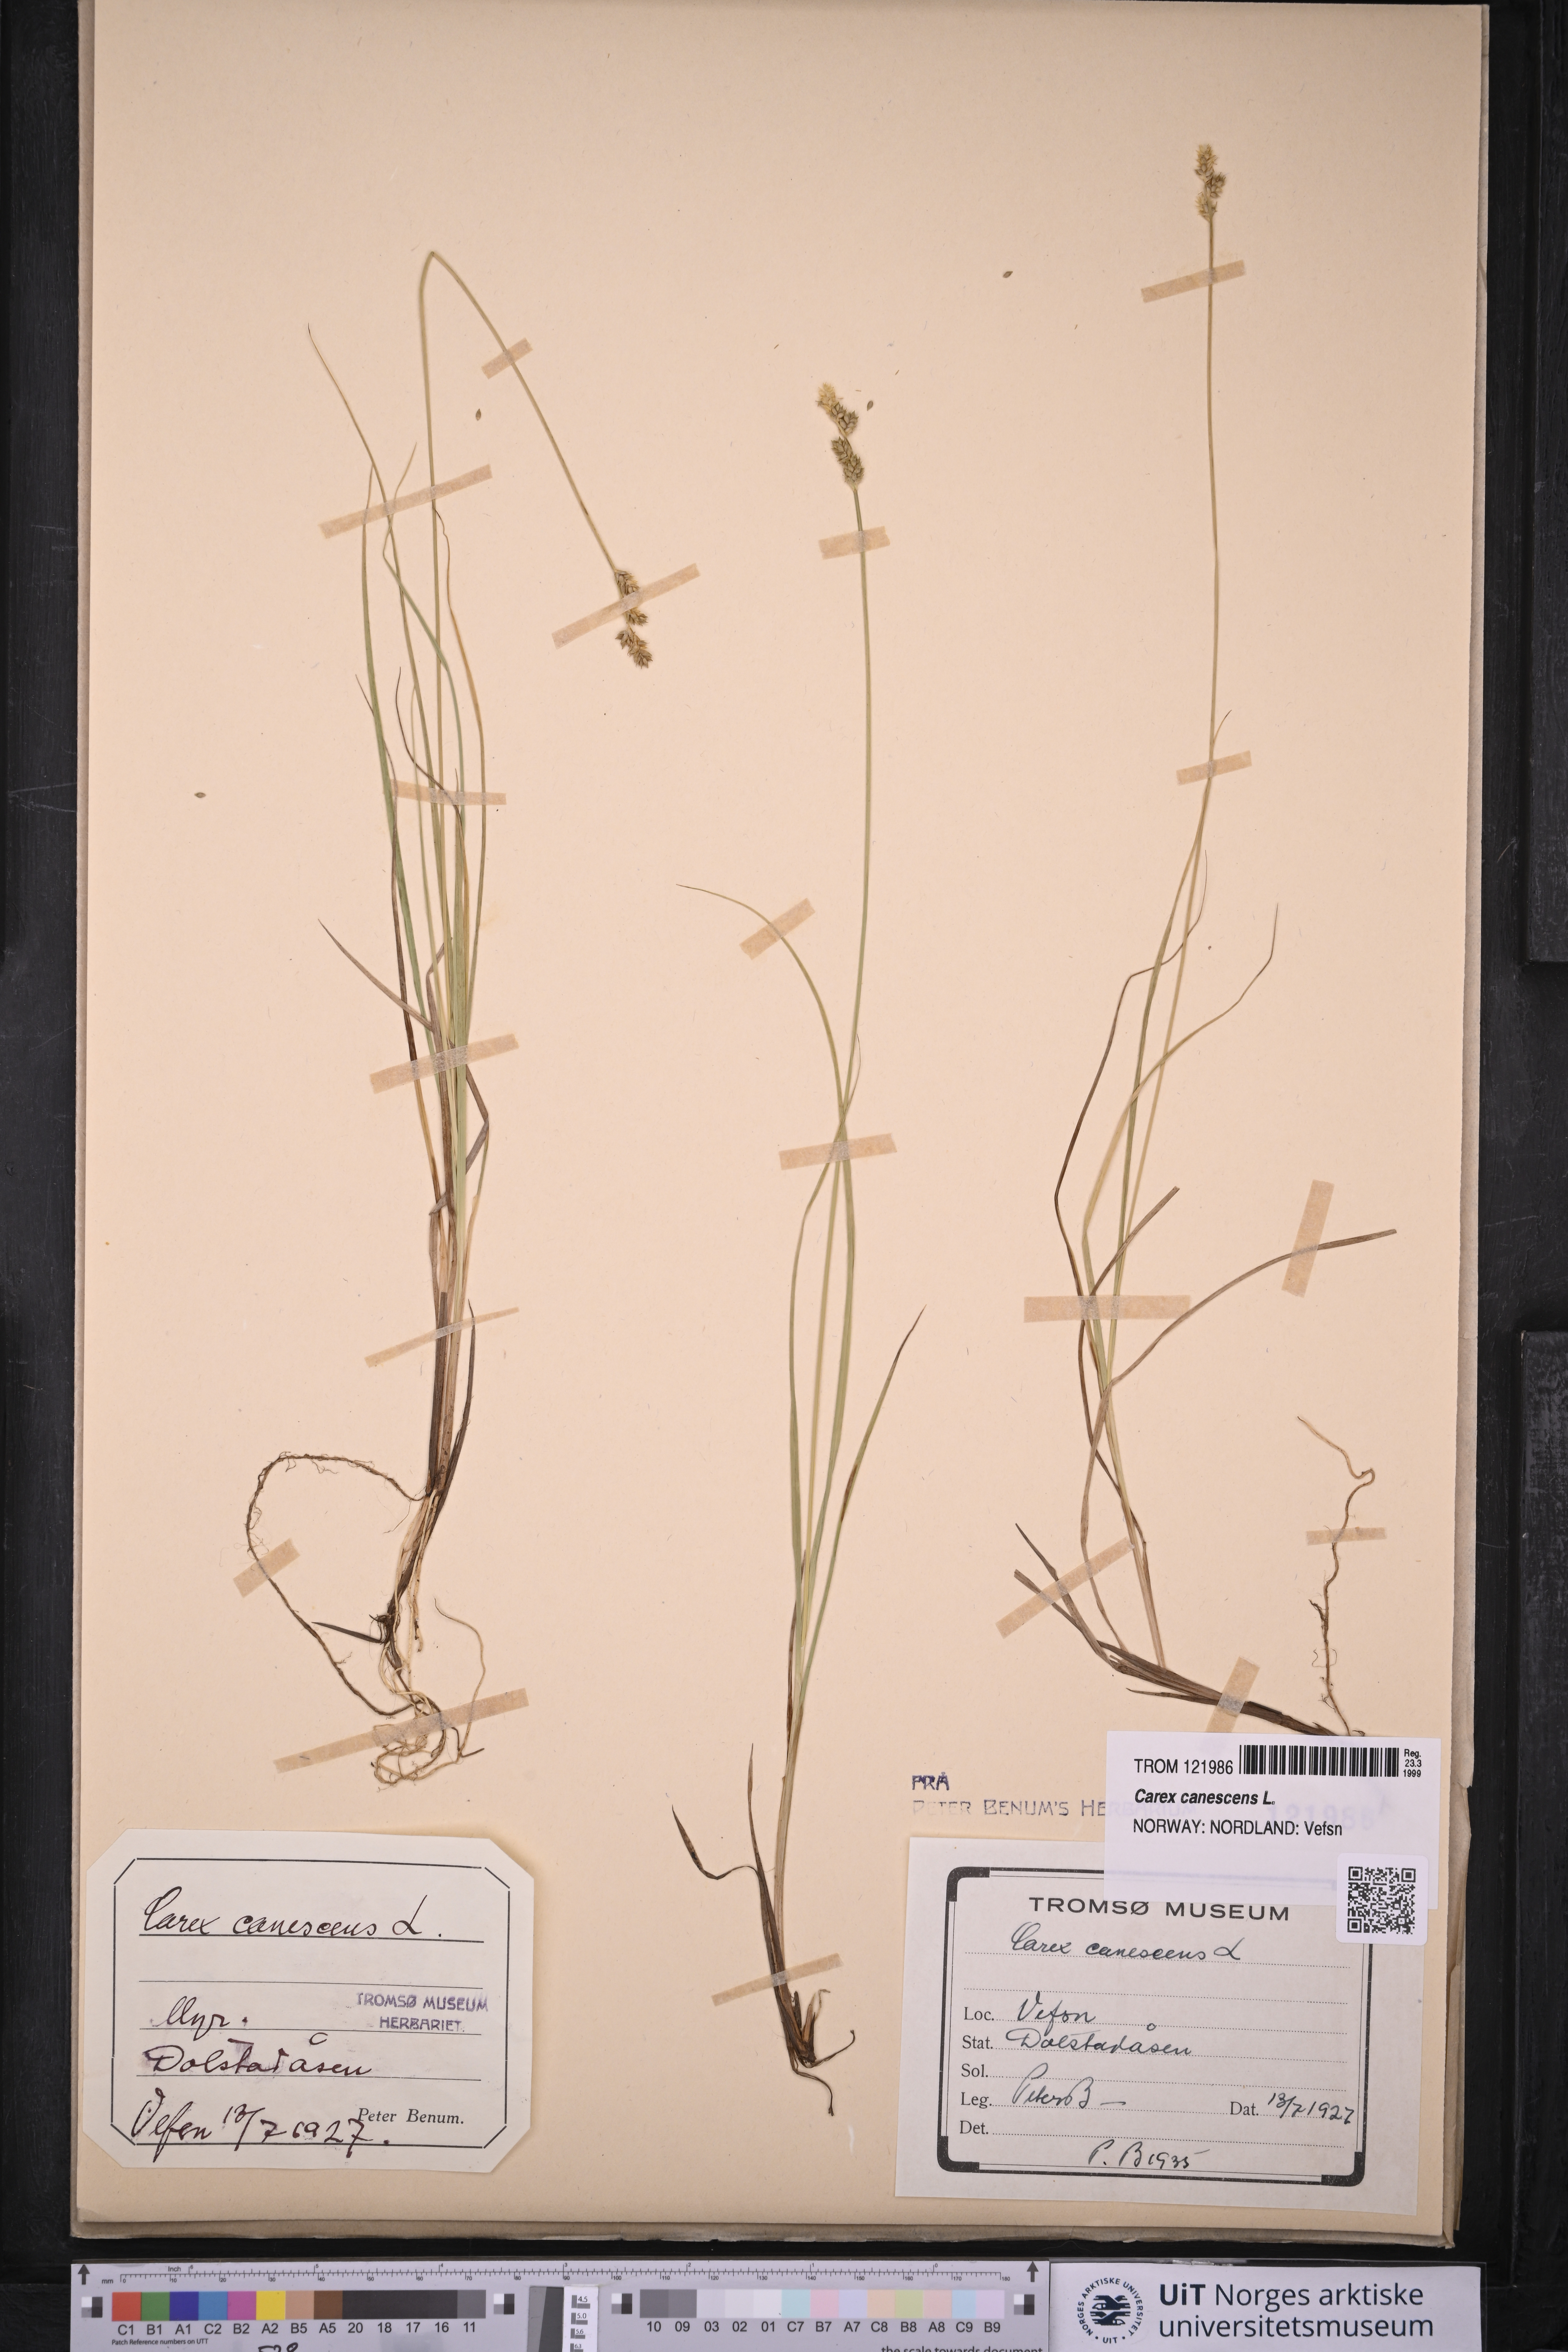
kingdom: Plantae
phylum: Tracheophyta
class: Liliopsida
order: Poales
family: Cyperaceae
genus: Carex
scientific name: Carex canescens
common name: White sedge
